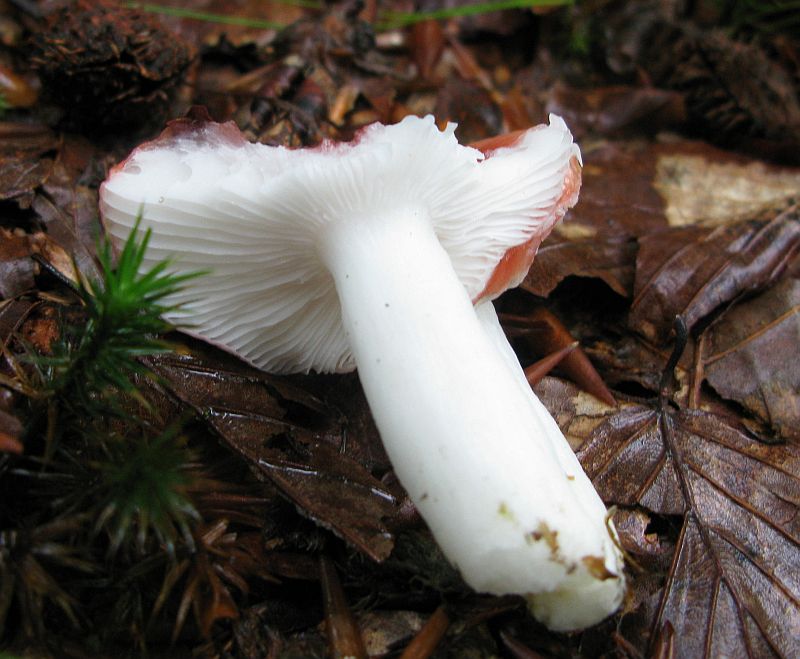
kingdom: Fungi
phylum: Basidiomycota
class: Agaricomycetes
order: Russulales
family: Russulaceae
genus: Russula
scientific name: Russula nobilis
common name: lille gift-skørhat
